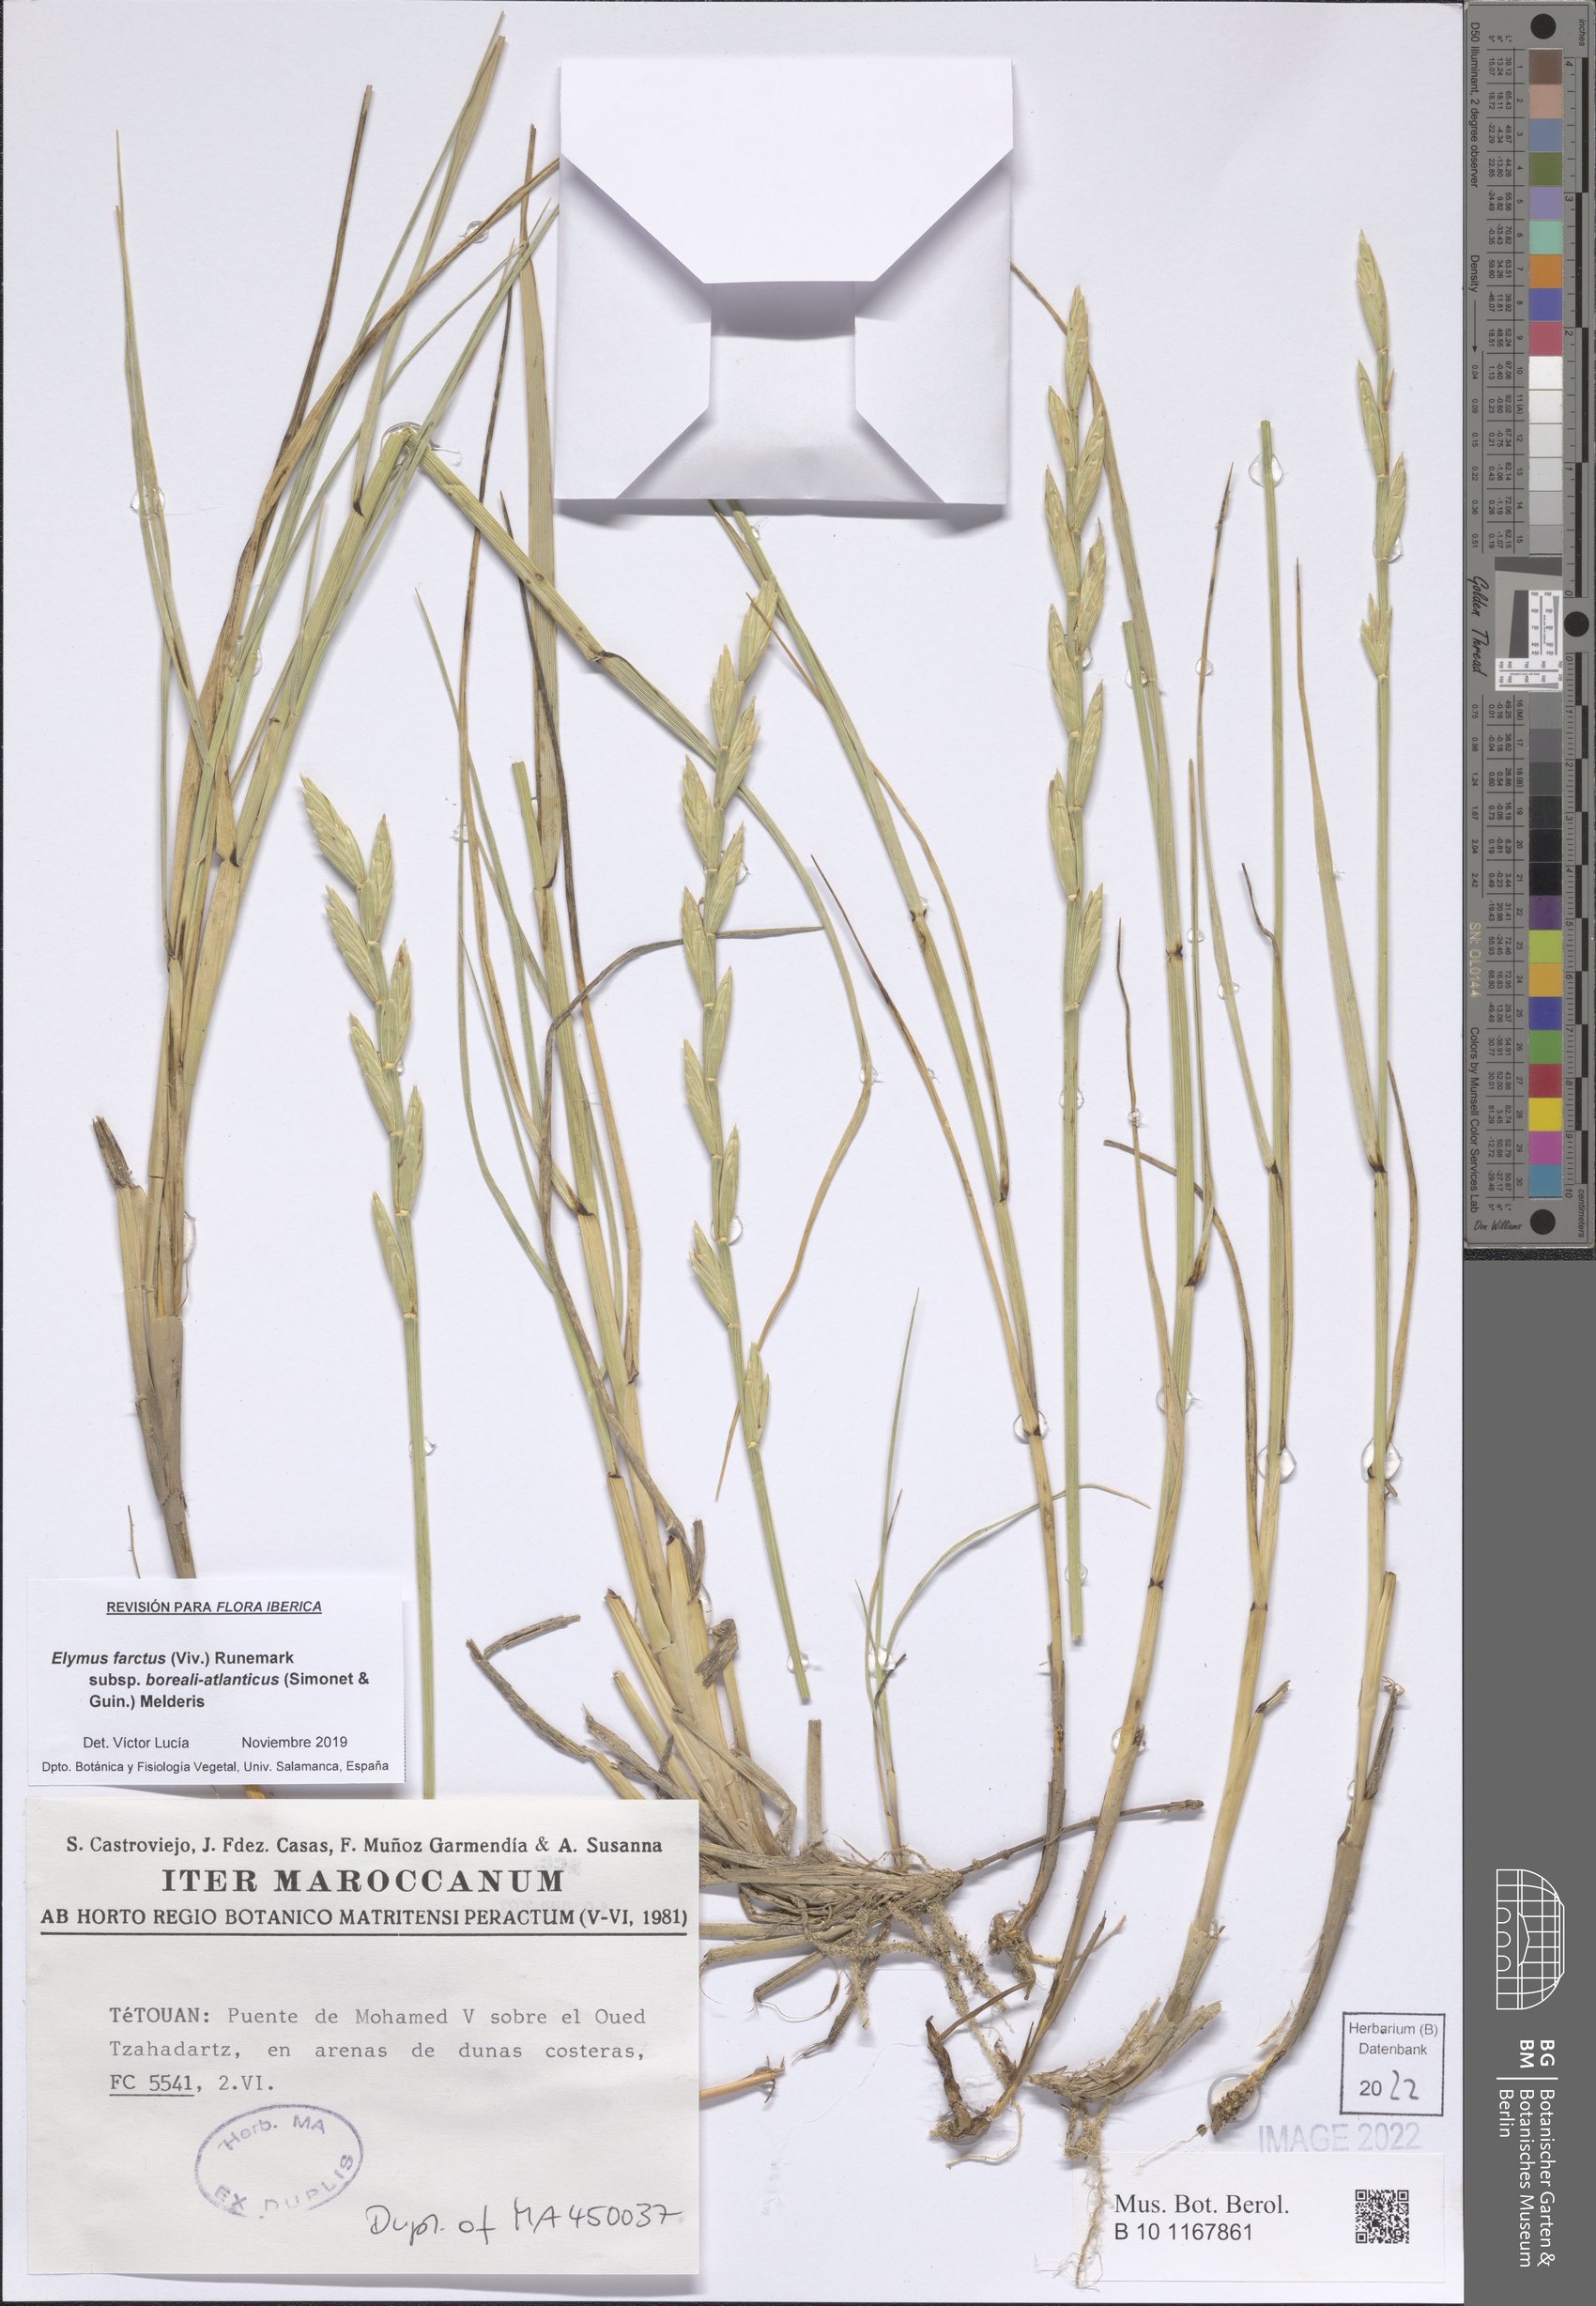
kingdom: Plantae
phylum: Tracheophyta
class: Liliopsida
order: Poales
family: Poaceae
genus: Thinopyrum
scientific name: Thinopyrum junceiforme
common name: Sea couch
